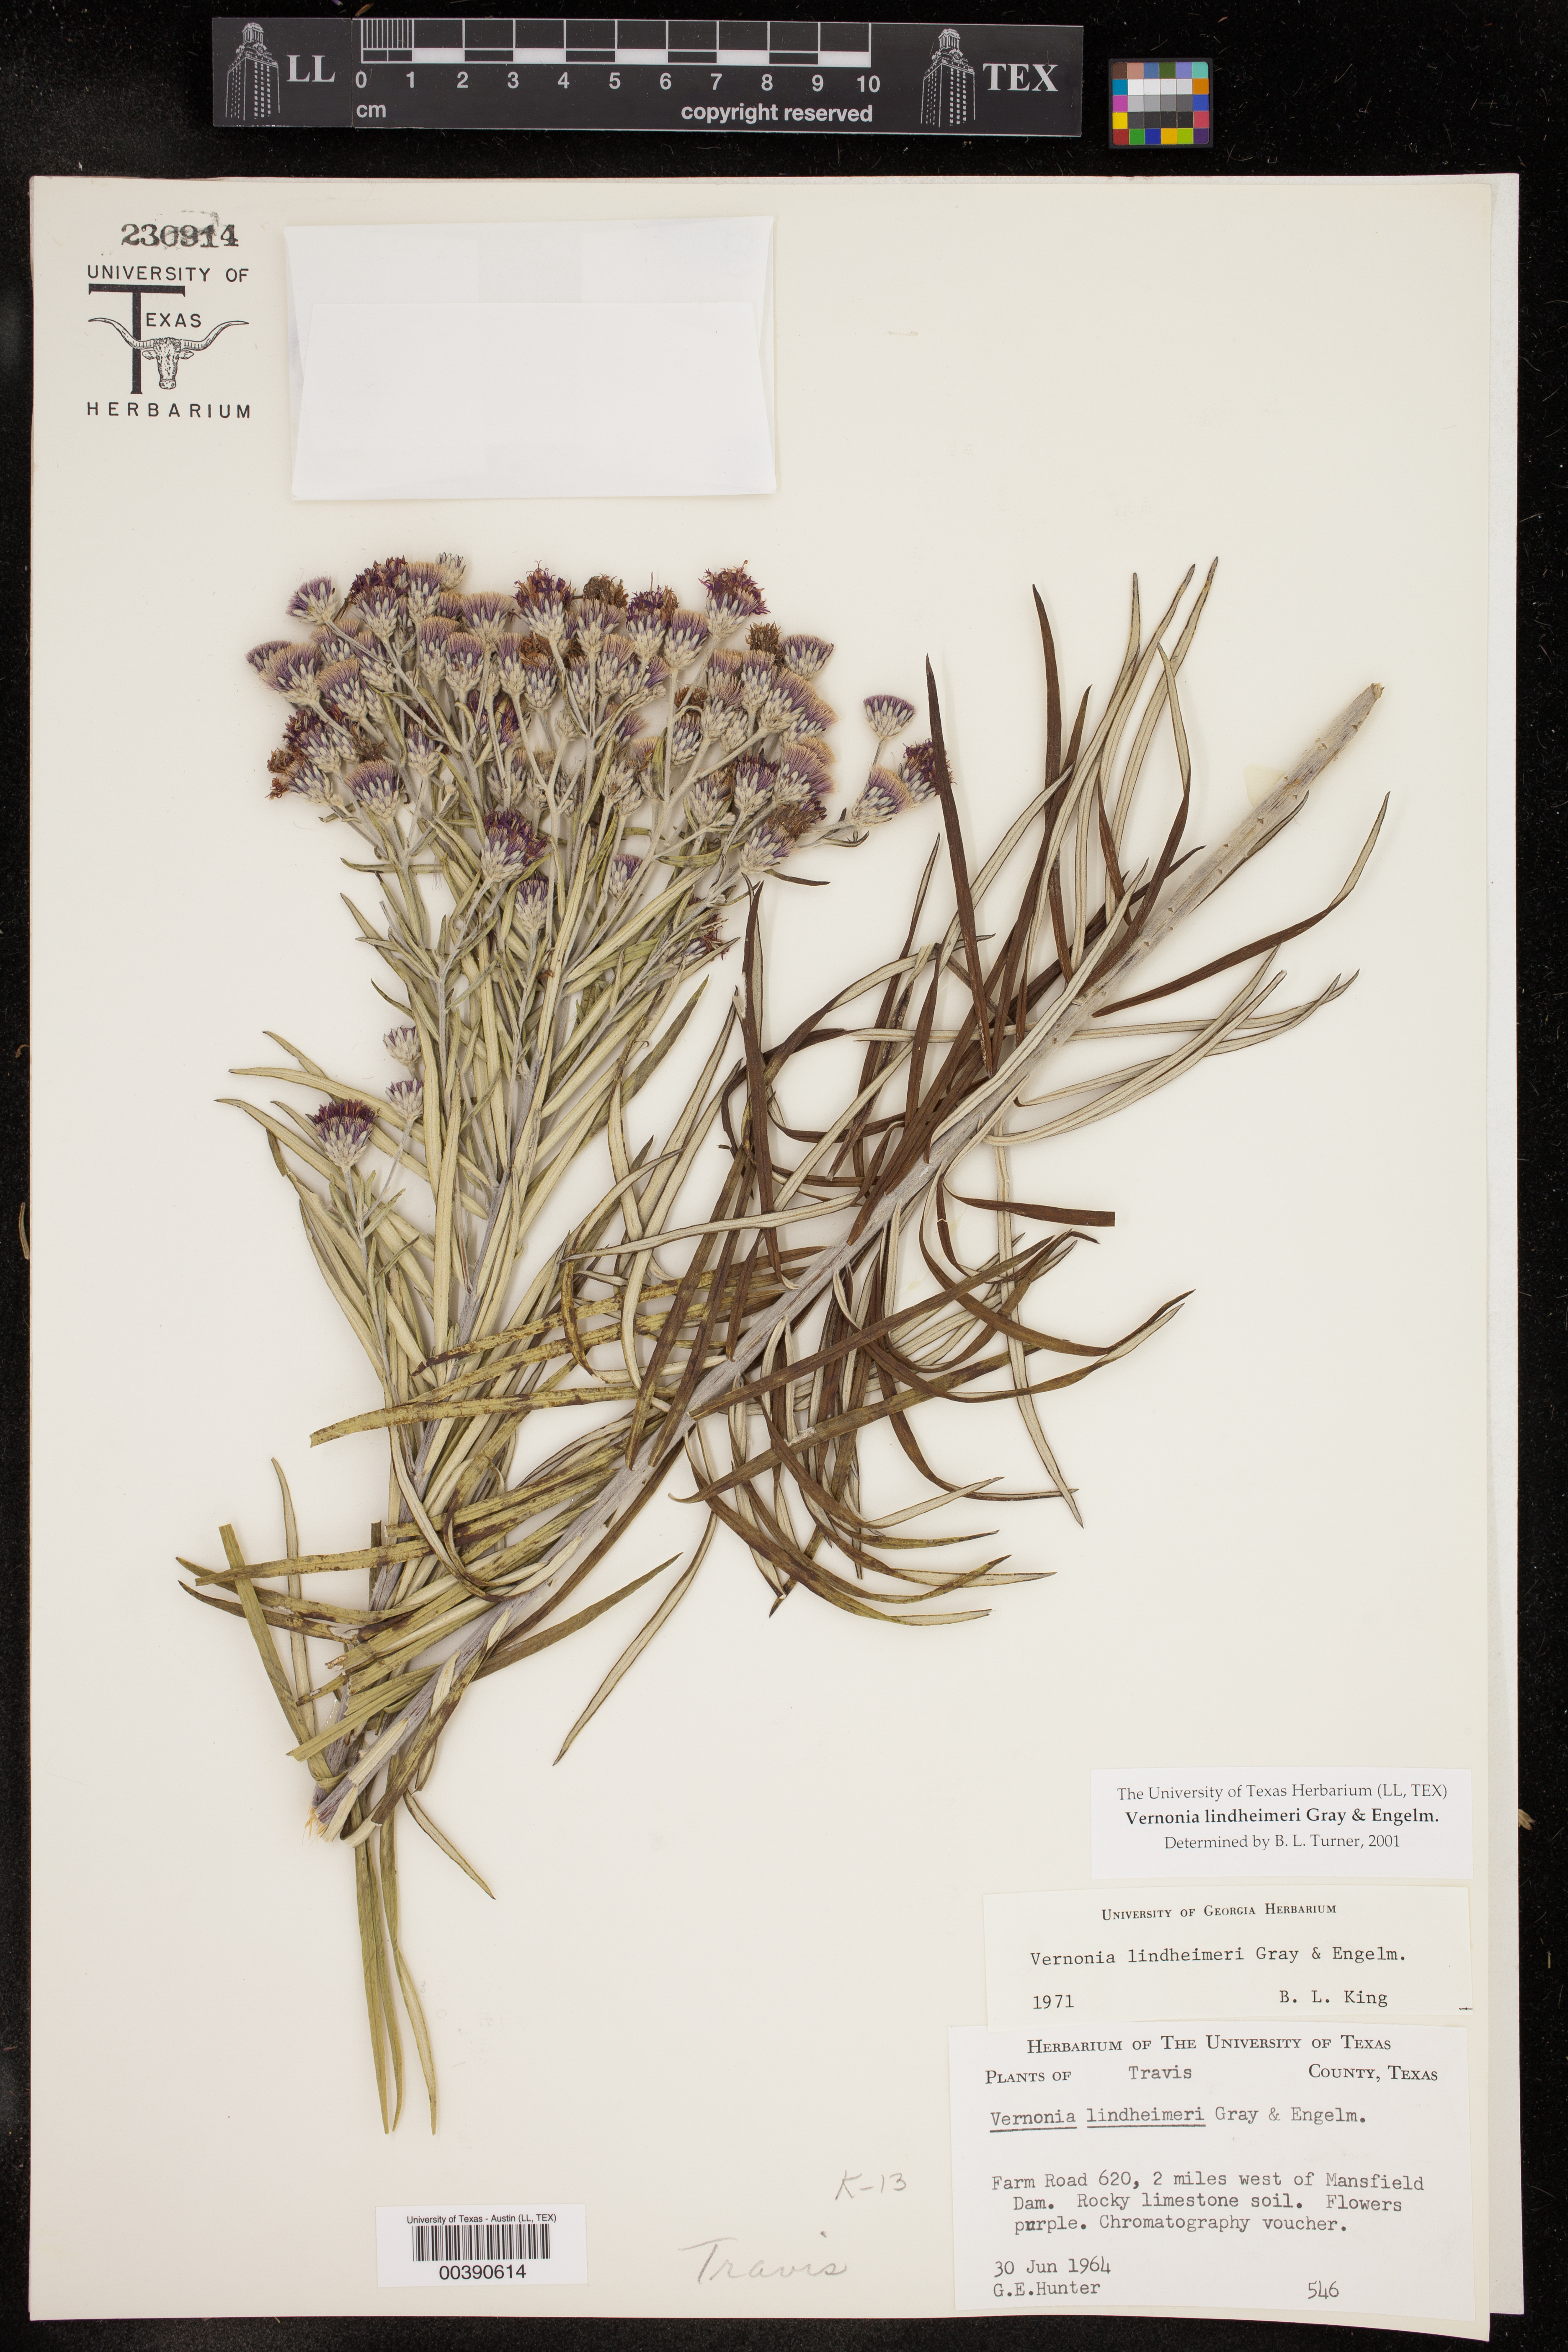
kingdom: Plantae
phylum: Tracheophyta
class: Magnoliopsida
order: Asterales
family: Asteraceae
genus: Vernonia
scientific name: Vernonia lindheimeri
